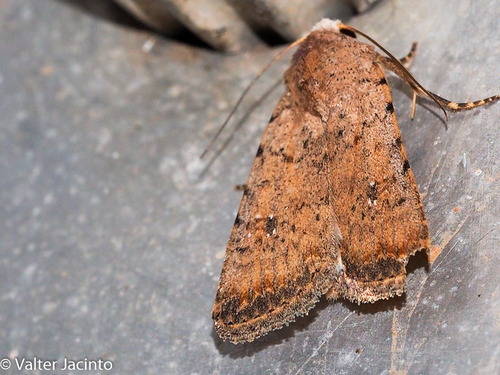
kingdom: Animalia
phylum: Arthropoda
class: Insecta
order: Lepidoptera
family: Noctuidae
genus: Caradrina
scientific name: Caradrina clavipalpis
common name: Pale mottled willow
